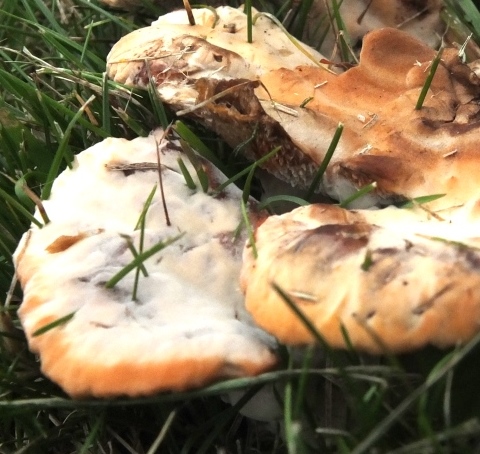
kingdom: Fungi
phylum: Basidiomycota
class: Agaricomycetes
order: Polyporales
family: Podoscyphaceae
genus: Abortiporus
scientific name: Abortiporus biennis
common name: rødmende pjalteporesvamp
